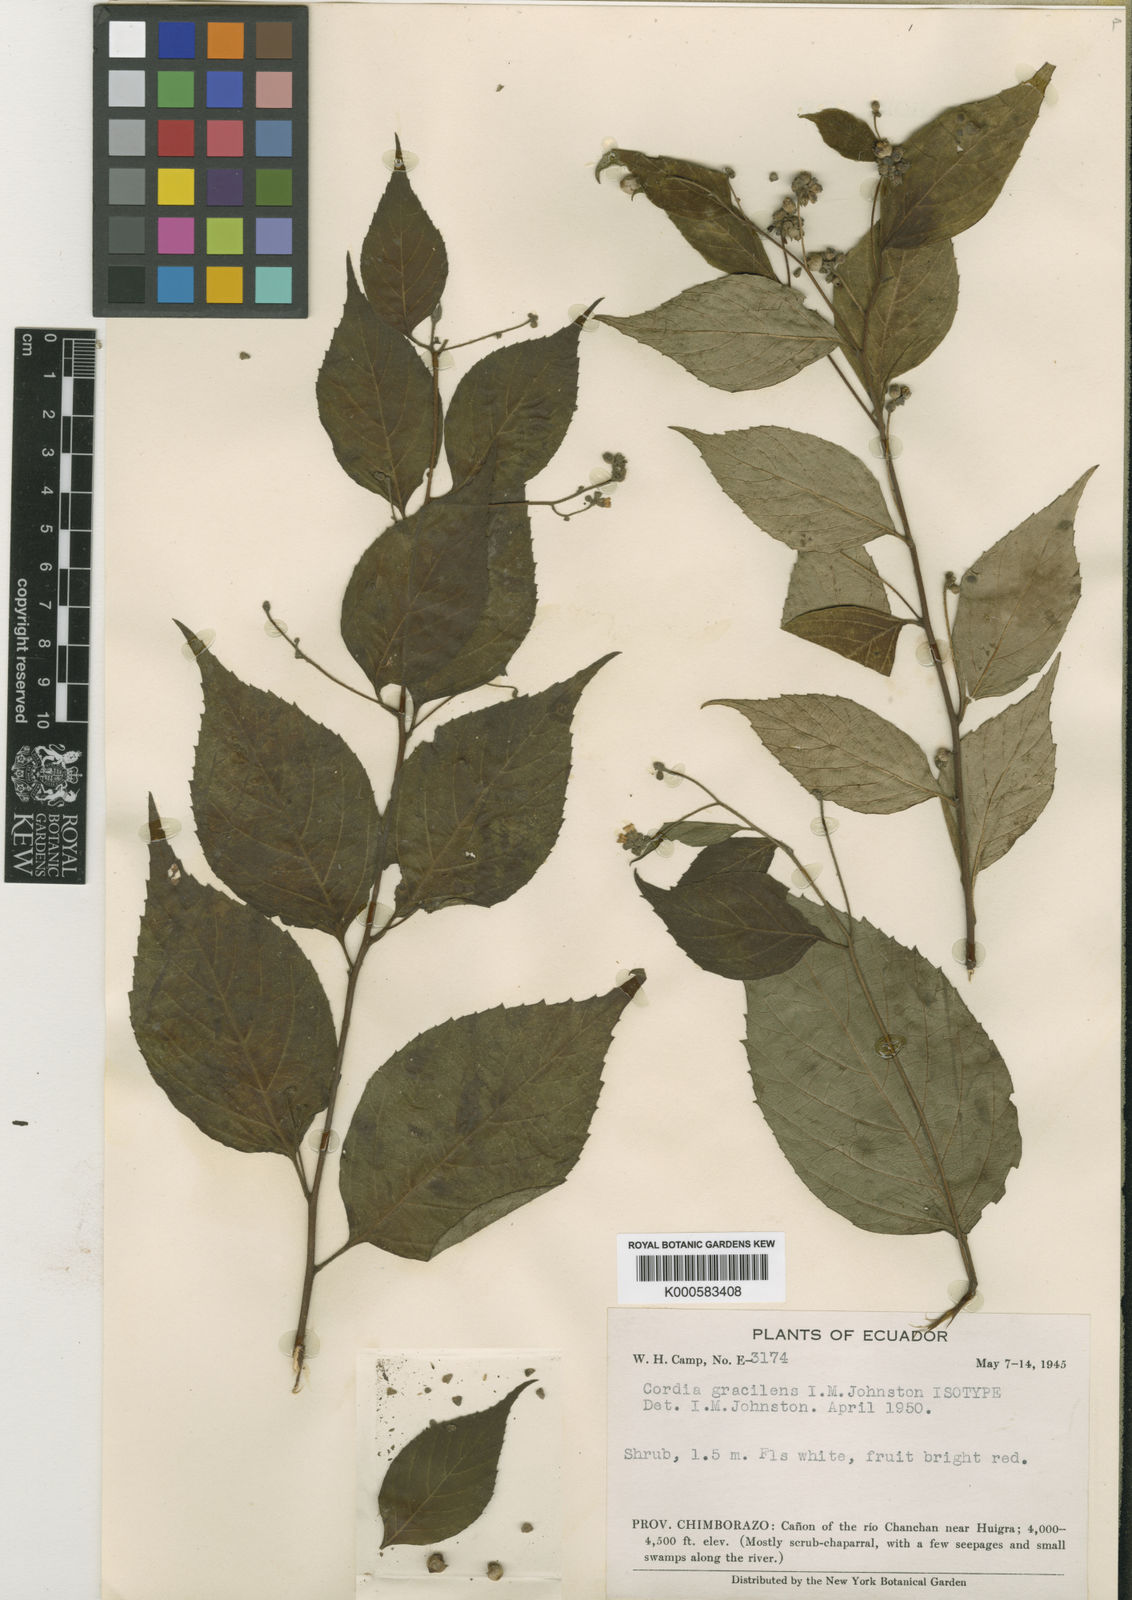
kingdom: Plantae
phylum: Tracheophyta
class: Magnoliopsida
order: Boraginales
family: Cordiaceae
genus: Cordia
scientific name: Cordia
